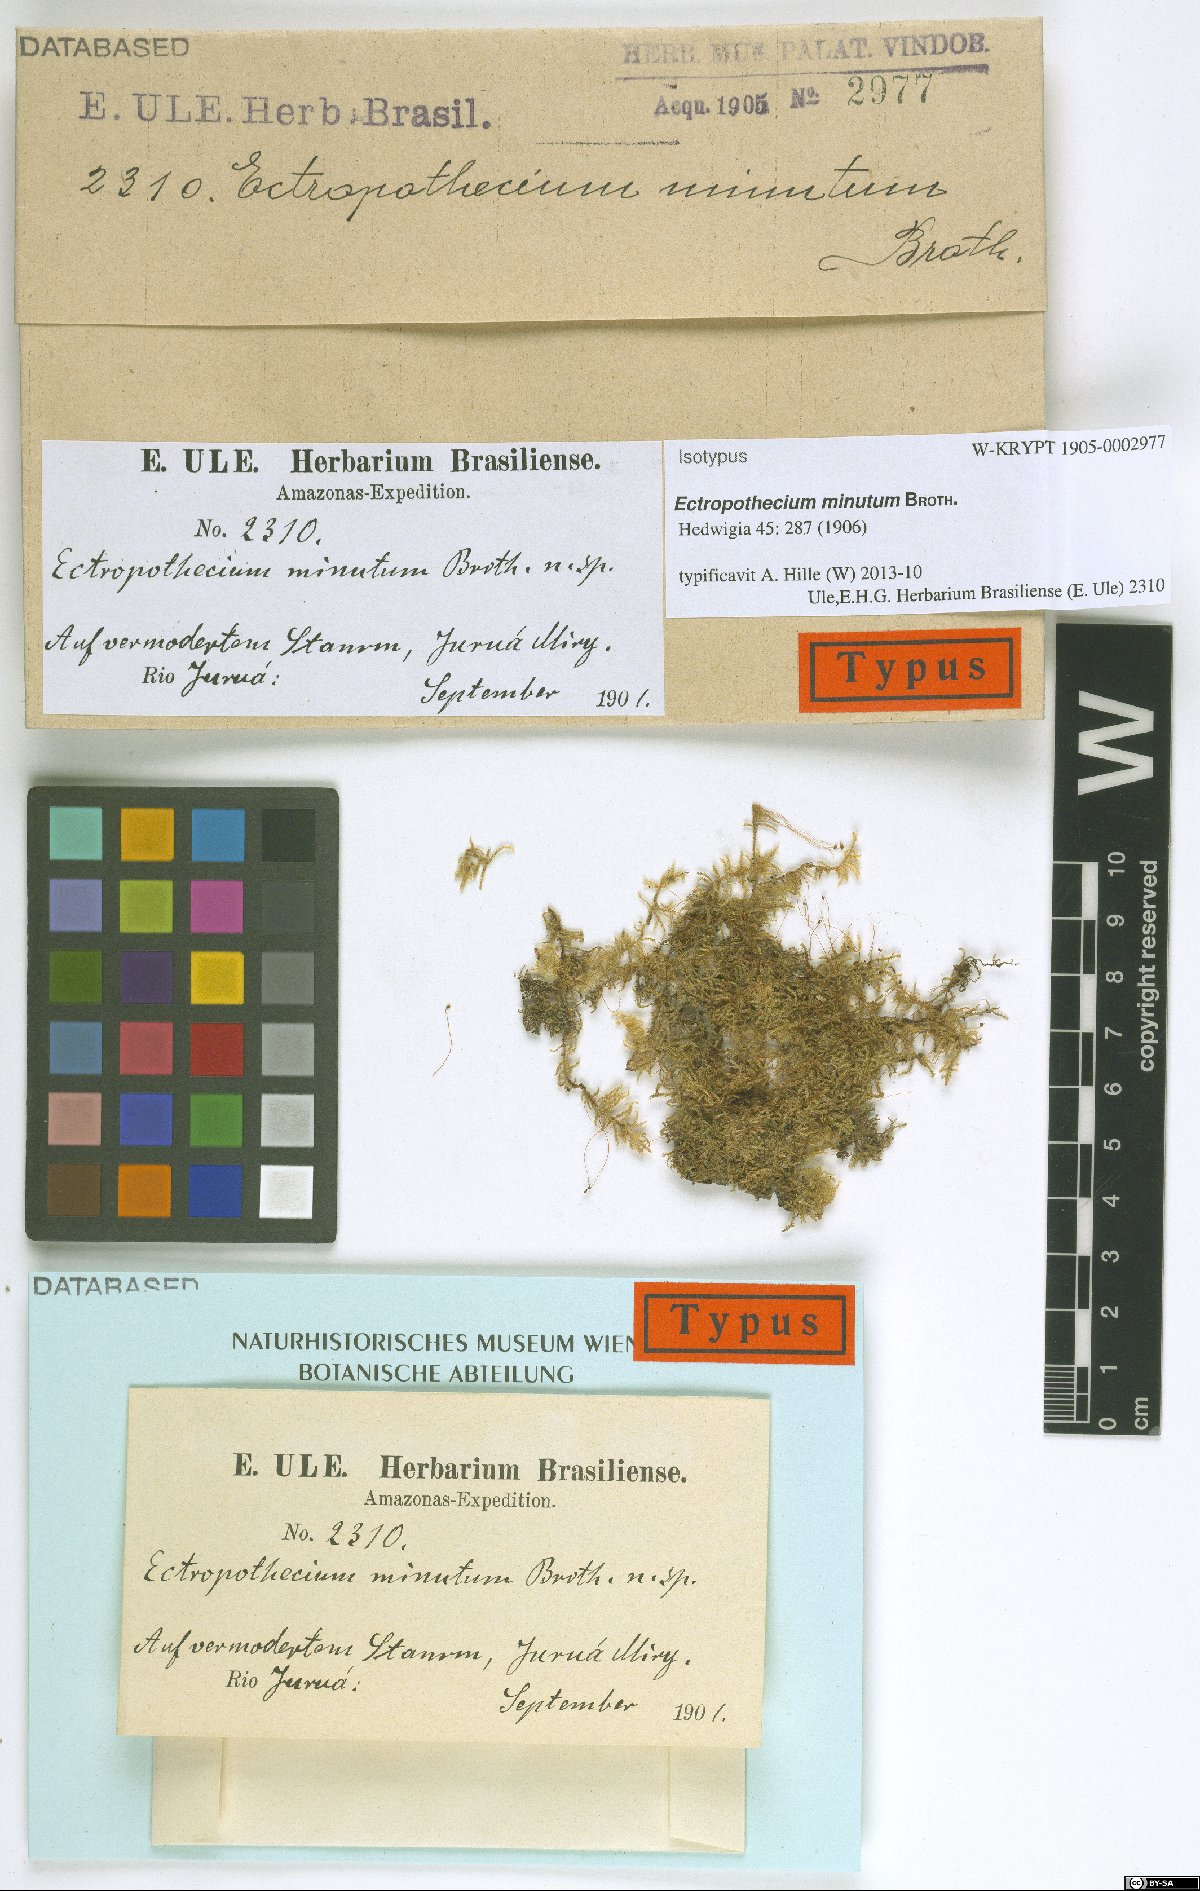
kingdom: Plantae
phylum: Bryophyta
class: Bryopsida
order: Hypnales
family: Hypnaceae
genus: Ectropothecium
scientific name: Ectropothecium minutum
